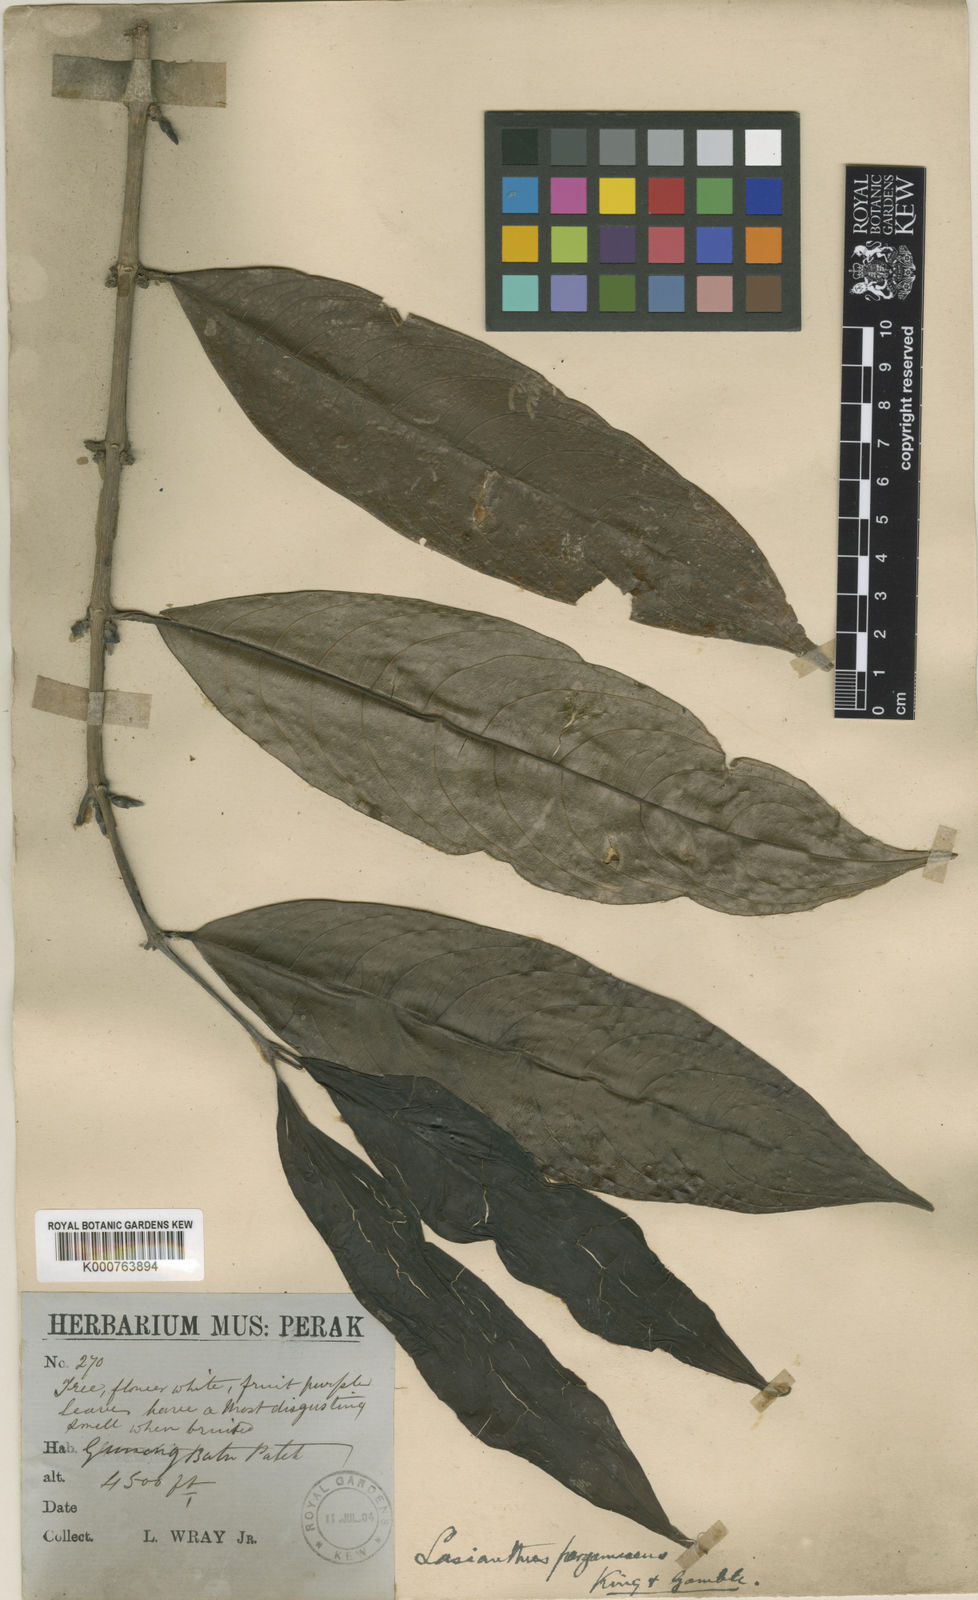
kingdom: Plantae
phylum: Tracheophyta
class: Magnoliopsida
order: Gentianales
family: Rubiaceae
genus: Lasianthus
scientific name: Lasianthus pergamaceus
